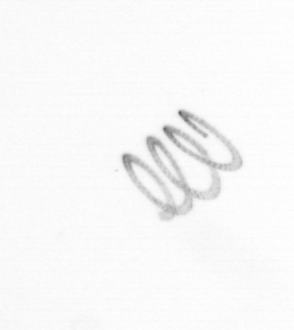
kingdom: Chromista
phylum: Ochrophyta
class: Bacillariophyceae
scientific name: Bacillariophyceae
